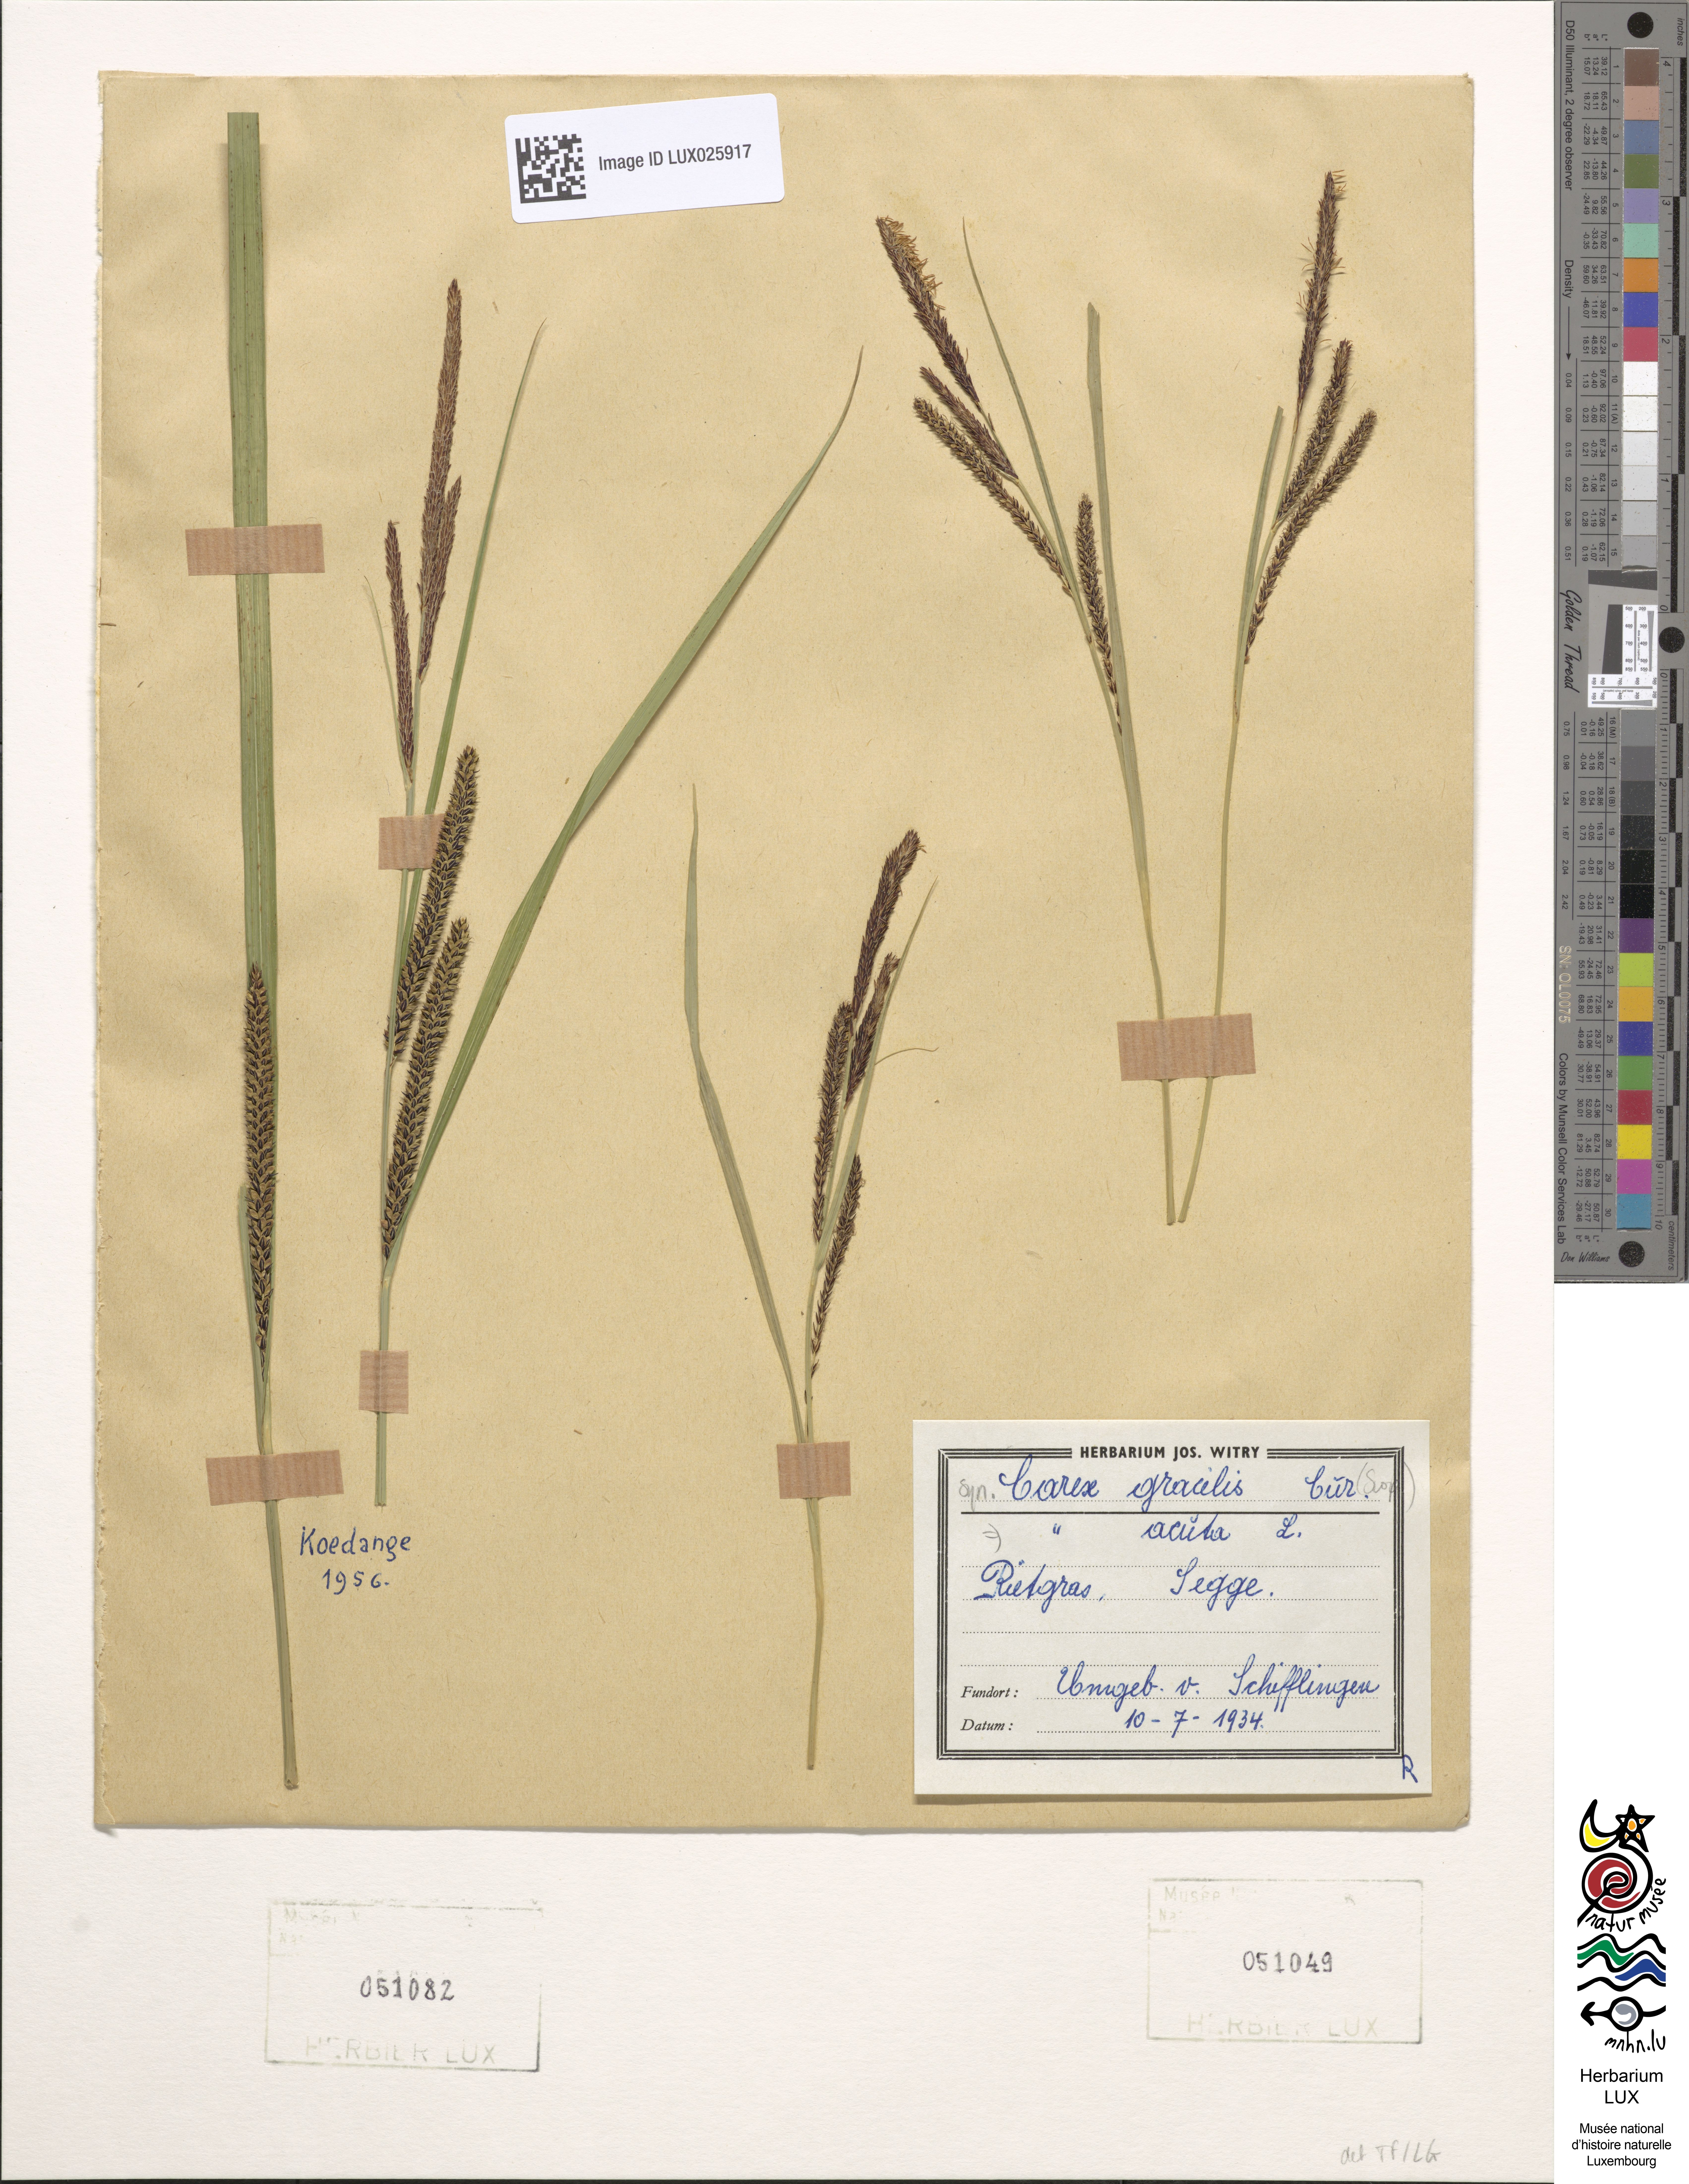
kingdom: Plantae
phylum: Tracheophyta
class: Liliopsida
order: Poales
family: Cyperaceae
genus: Carex
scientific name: Carex acuta
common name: Slender tufted-sedge
